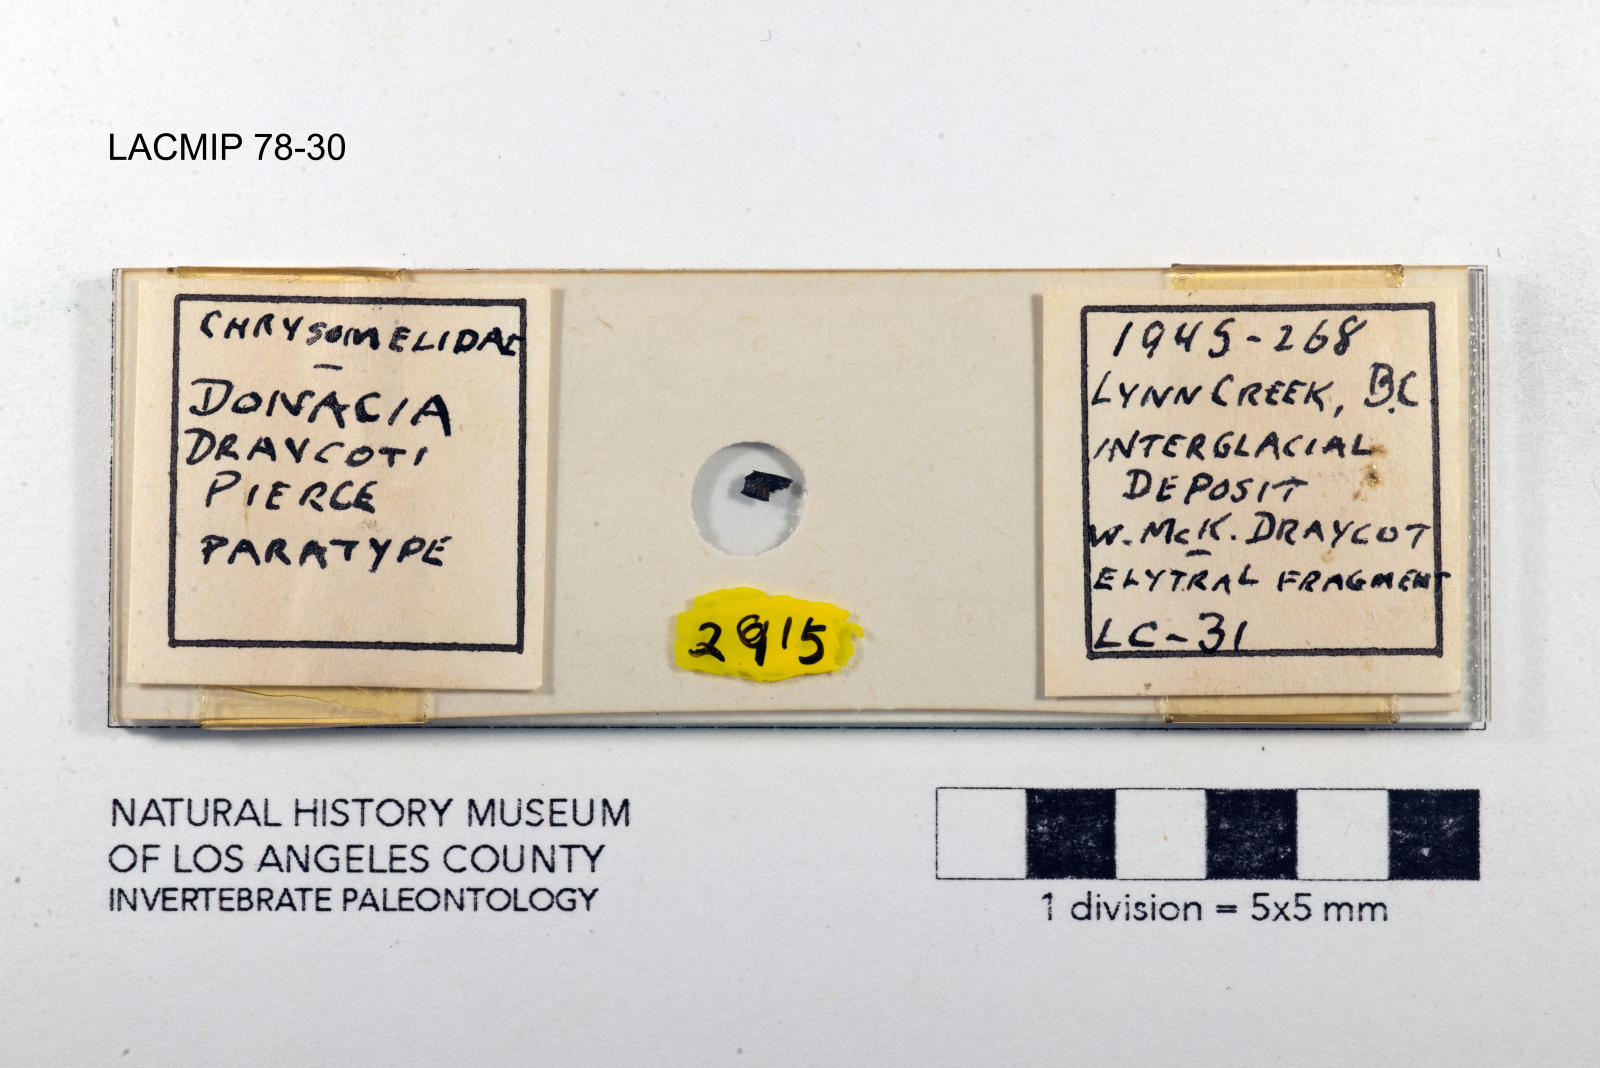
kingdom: Animalia
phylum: Arthropoda
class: Insecta
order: Coleoptera
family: Chrysomelidae
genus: Donacia
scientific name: Donacia draycoti
